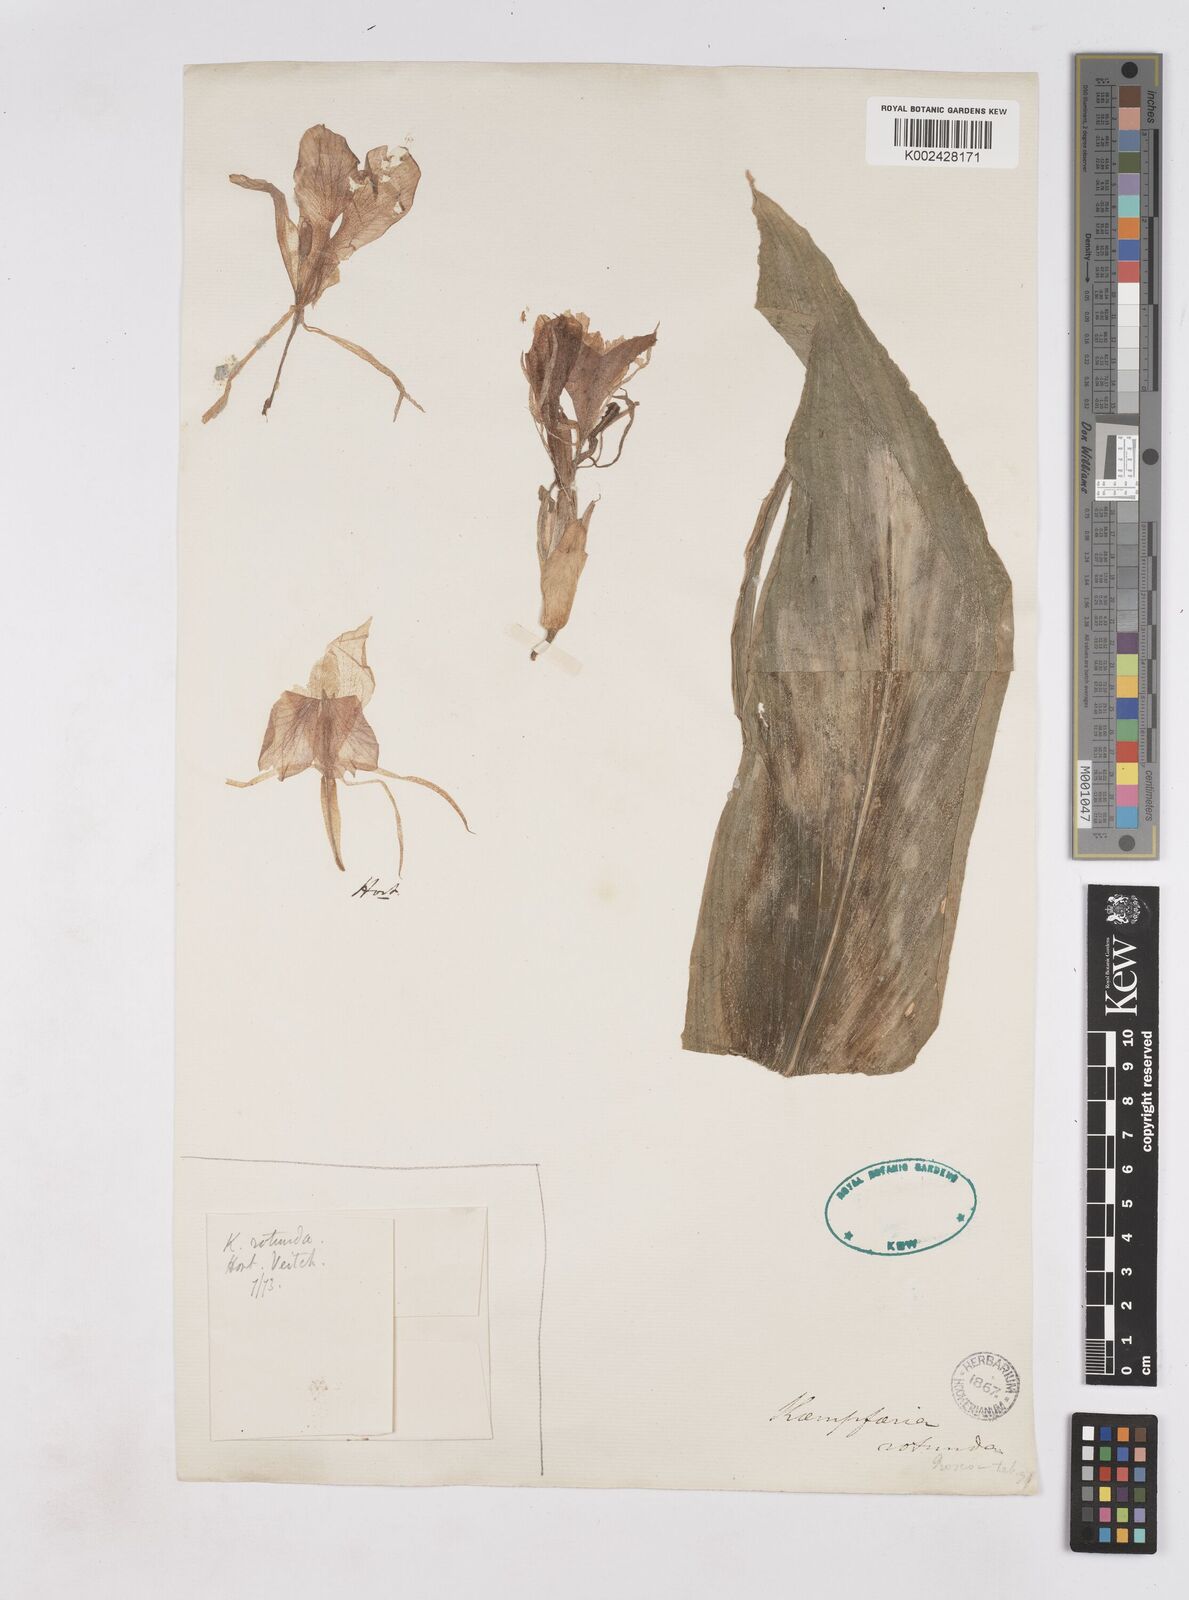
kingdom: Plantae
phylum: Tracheophyta
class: Liliopsida
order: Zingiberales
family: Zingiberaceae
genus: Kaempferia
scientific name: Kaempferia rotunda
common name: Tropical-crocus
